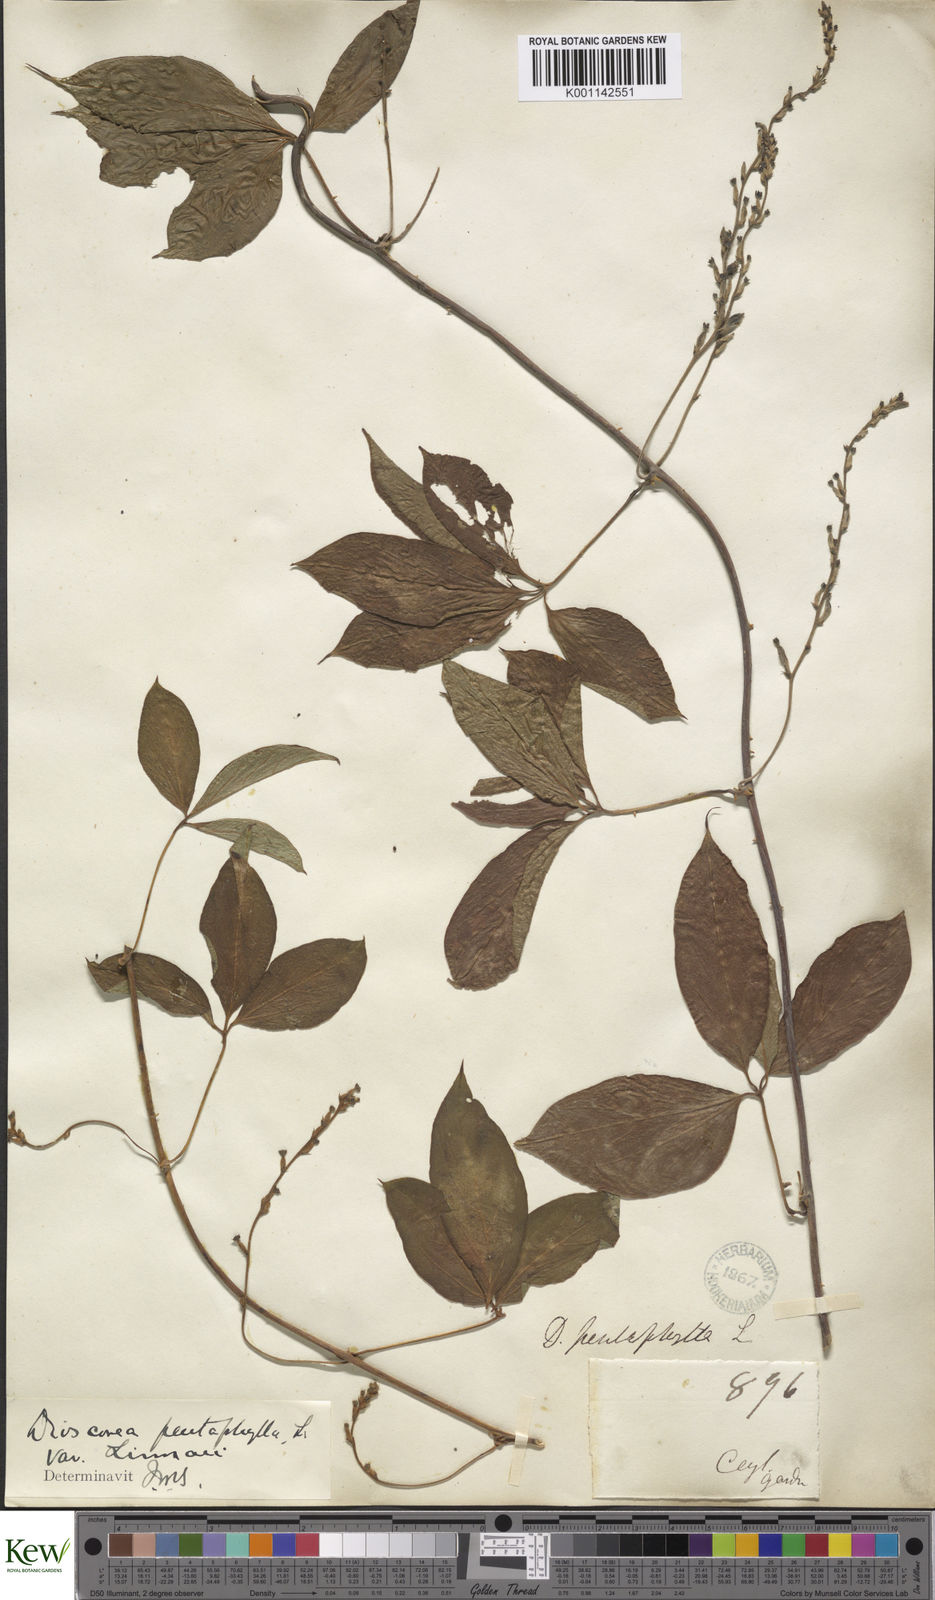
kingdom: Plantae
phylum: Tracheophyta
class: Liliopsida
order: Dioscoreales
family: Dioscoreaceae
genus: Dioscorea
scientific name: Dioscorea pentaphylla
